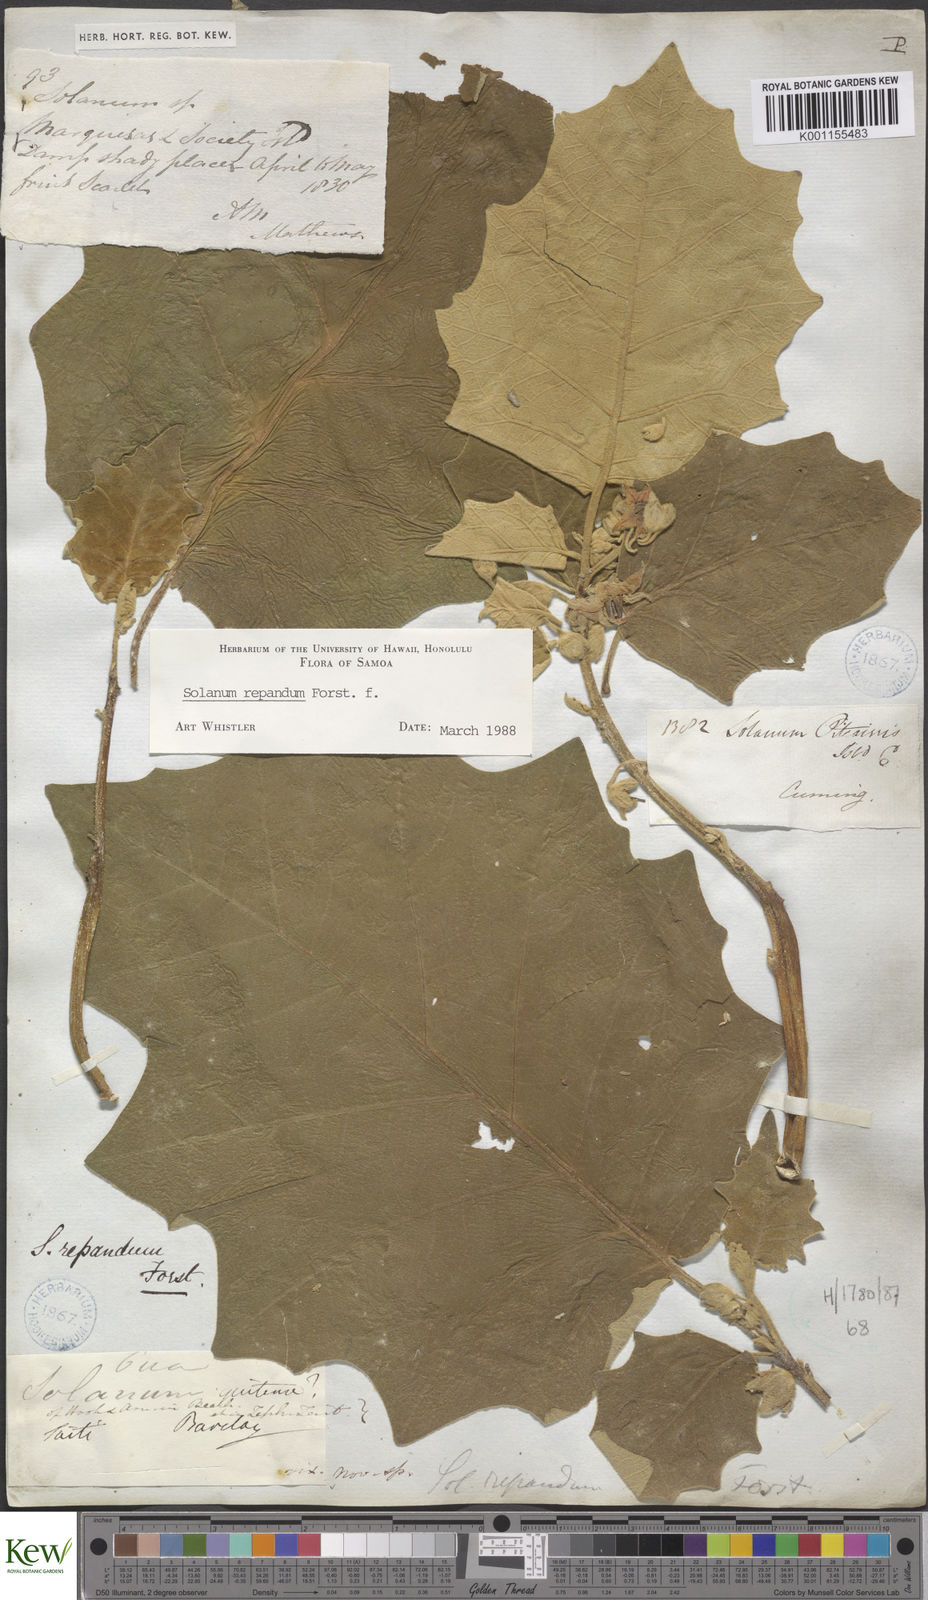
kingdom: Plantae
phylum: Tracheophyta
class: Magnoliopsida
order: Solanales
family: Solanaceae
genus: Solanum
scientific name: Solanum repandum
